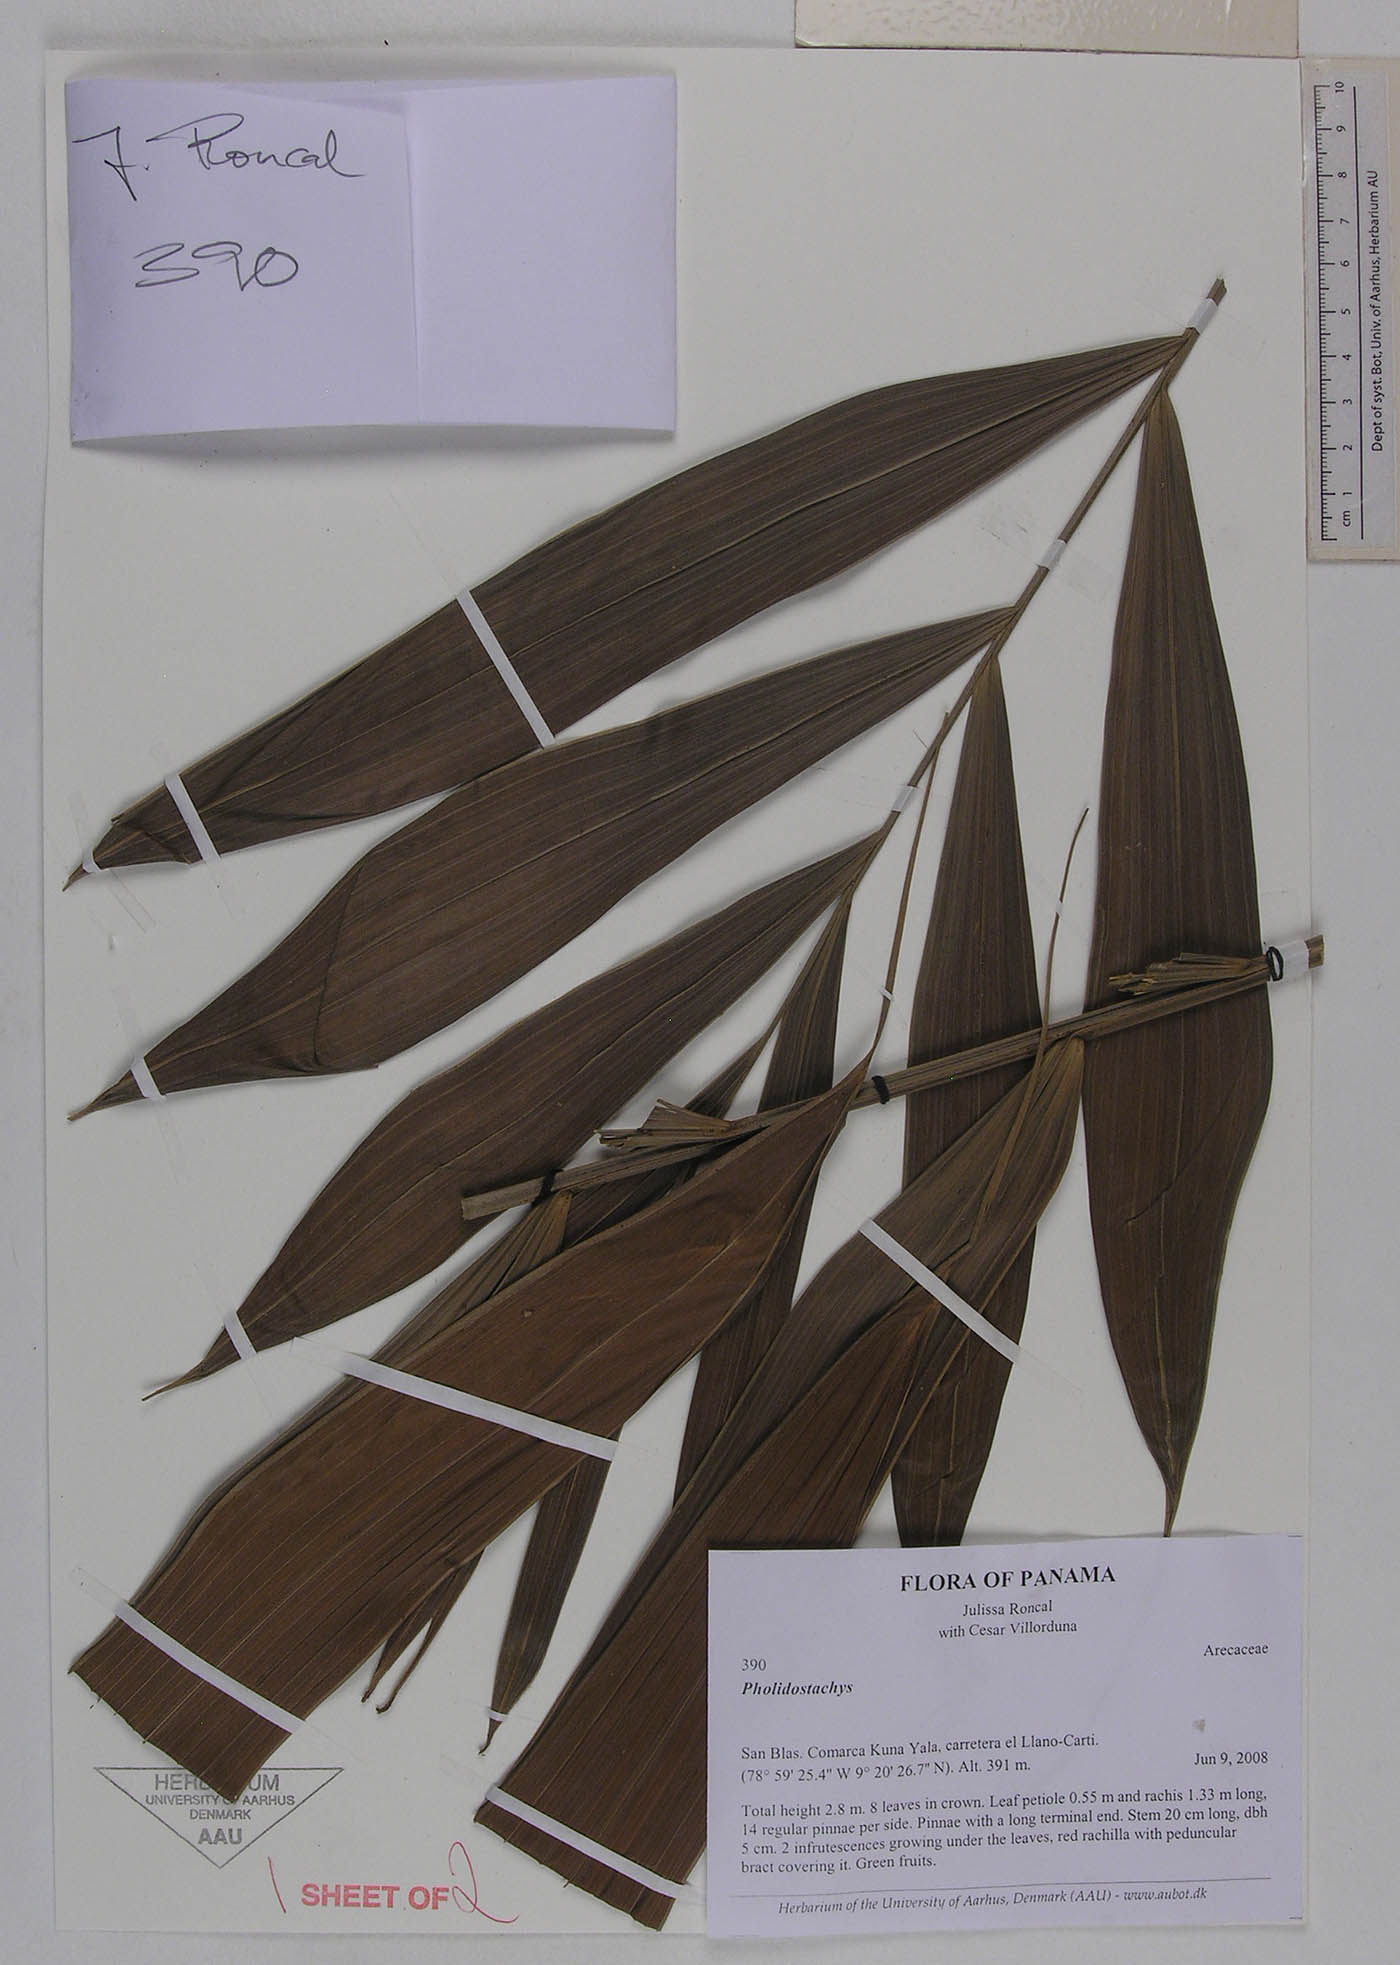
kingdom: Plantae
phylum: Tracheophyta
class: Liliopsida
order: Arecales
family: Arecaceae
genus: Prestoea
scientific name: Prestoea pubens
